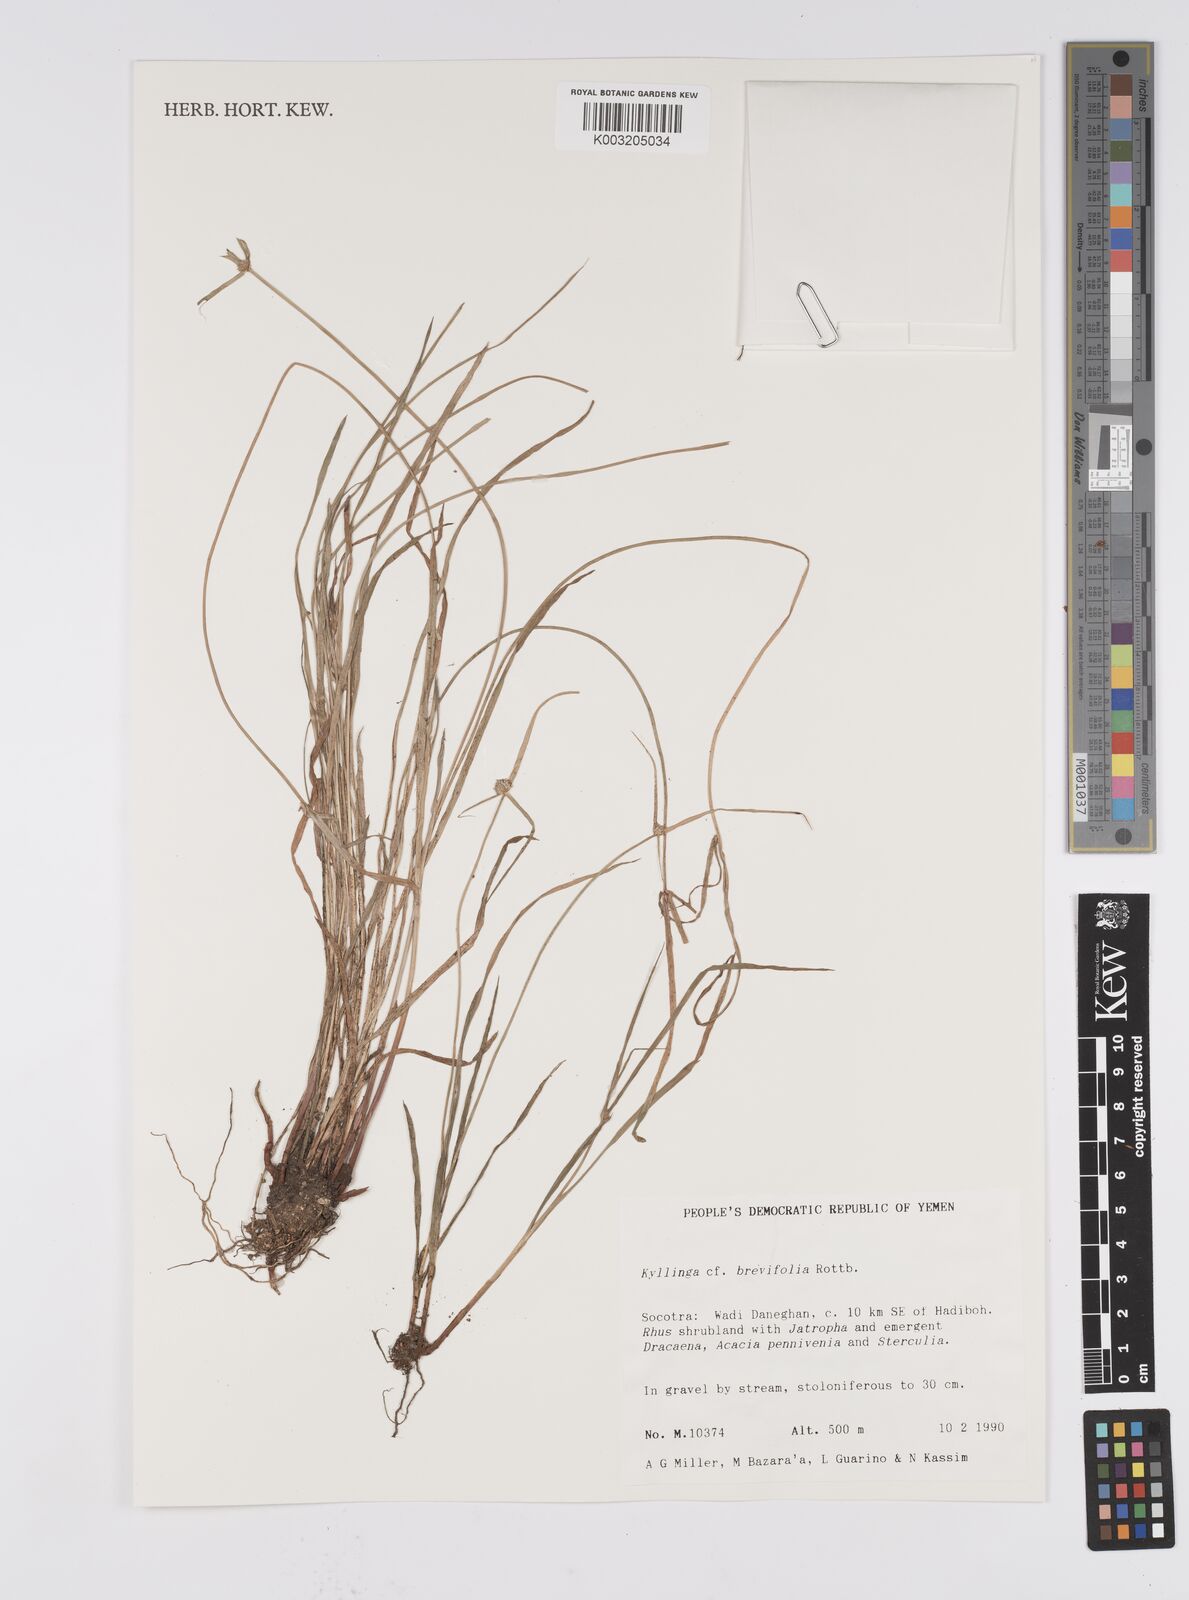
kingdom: Plantae
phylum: Tracheophyta
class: Liliopsida
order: Poales
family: Cyperaceae
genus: Cyperus
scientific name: Cyperus brevifolius
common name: Globe kyllinga
